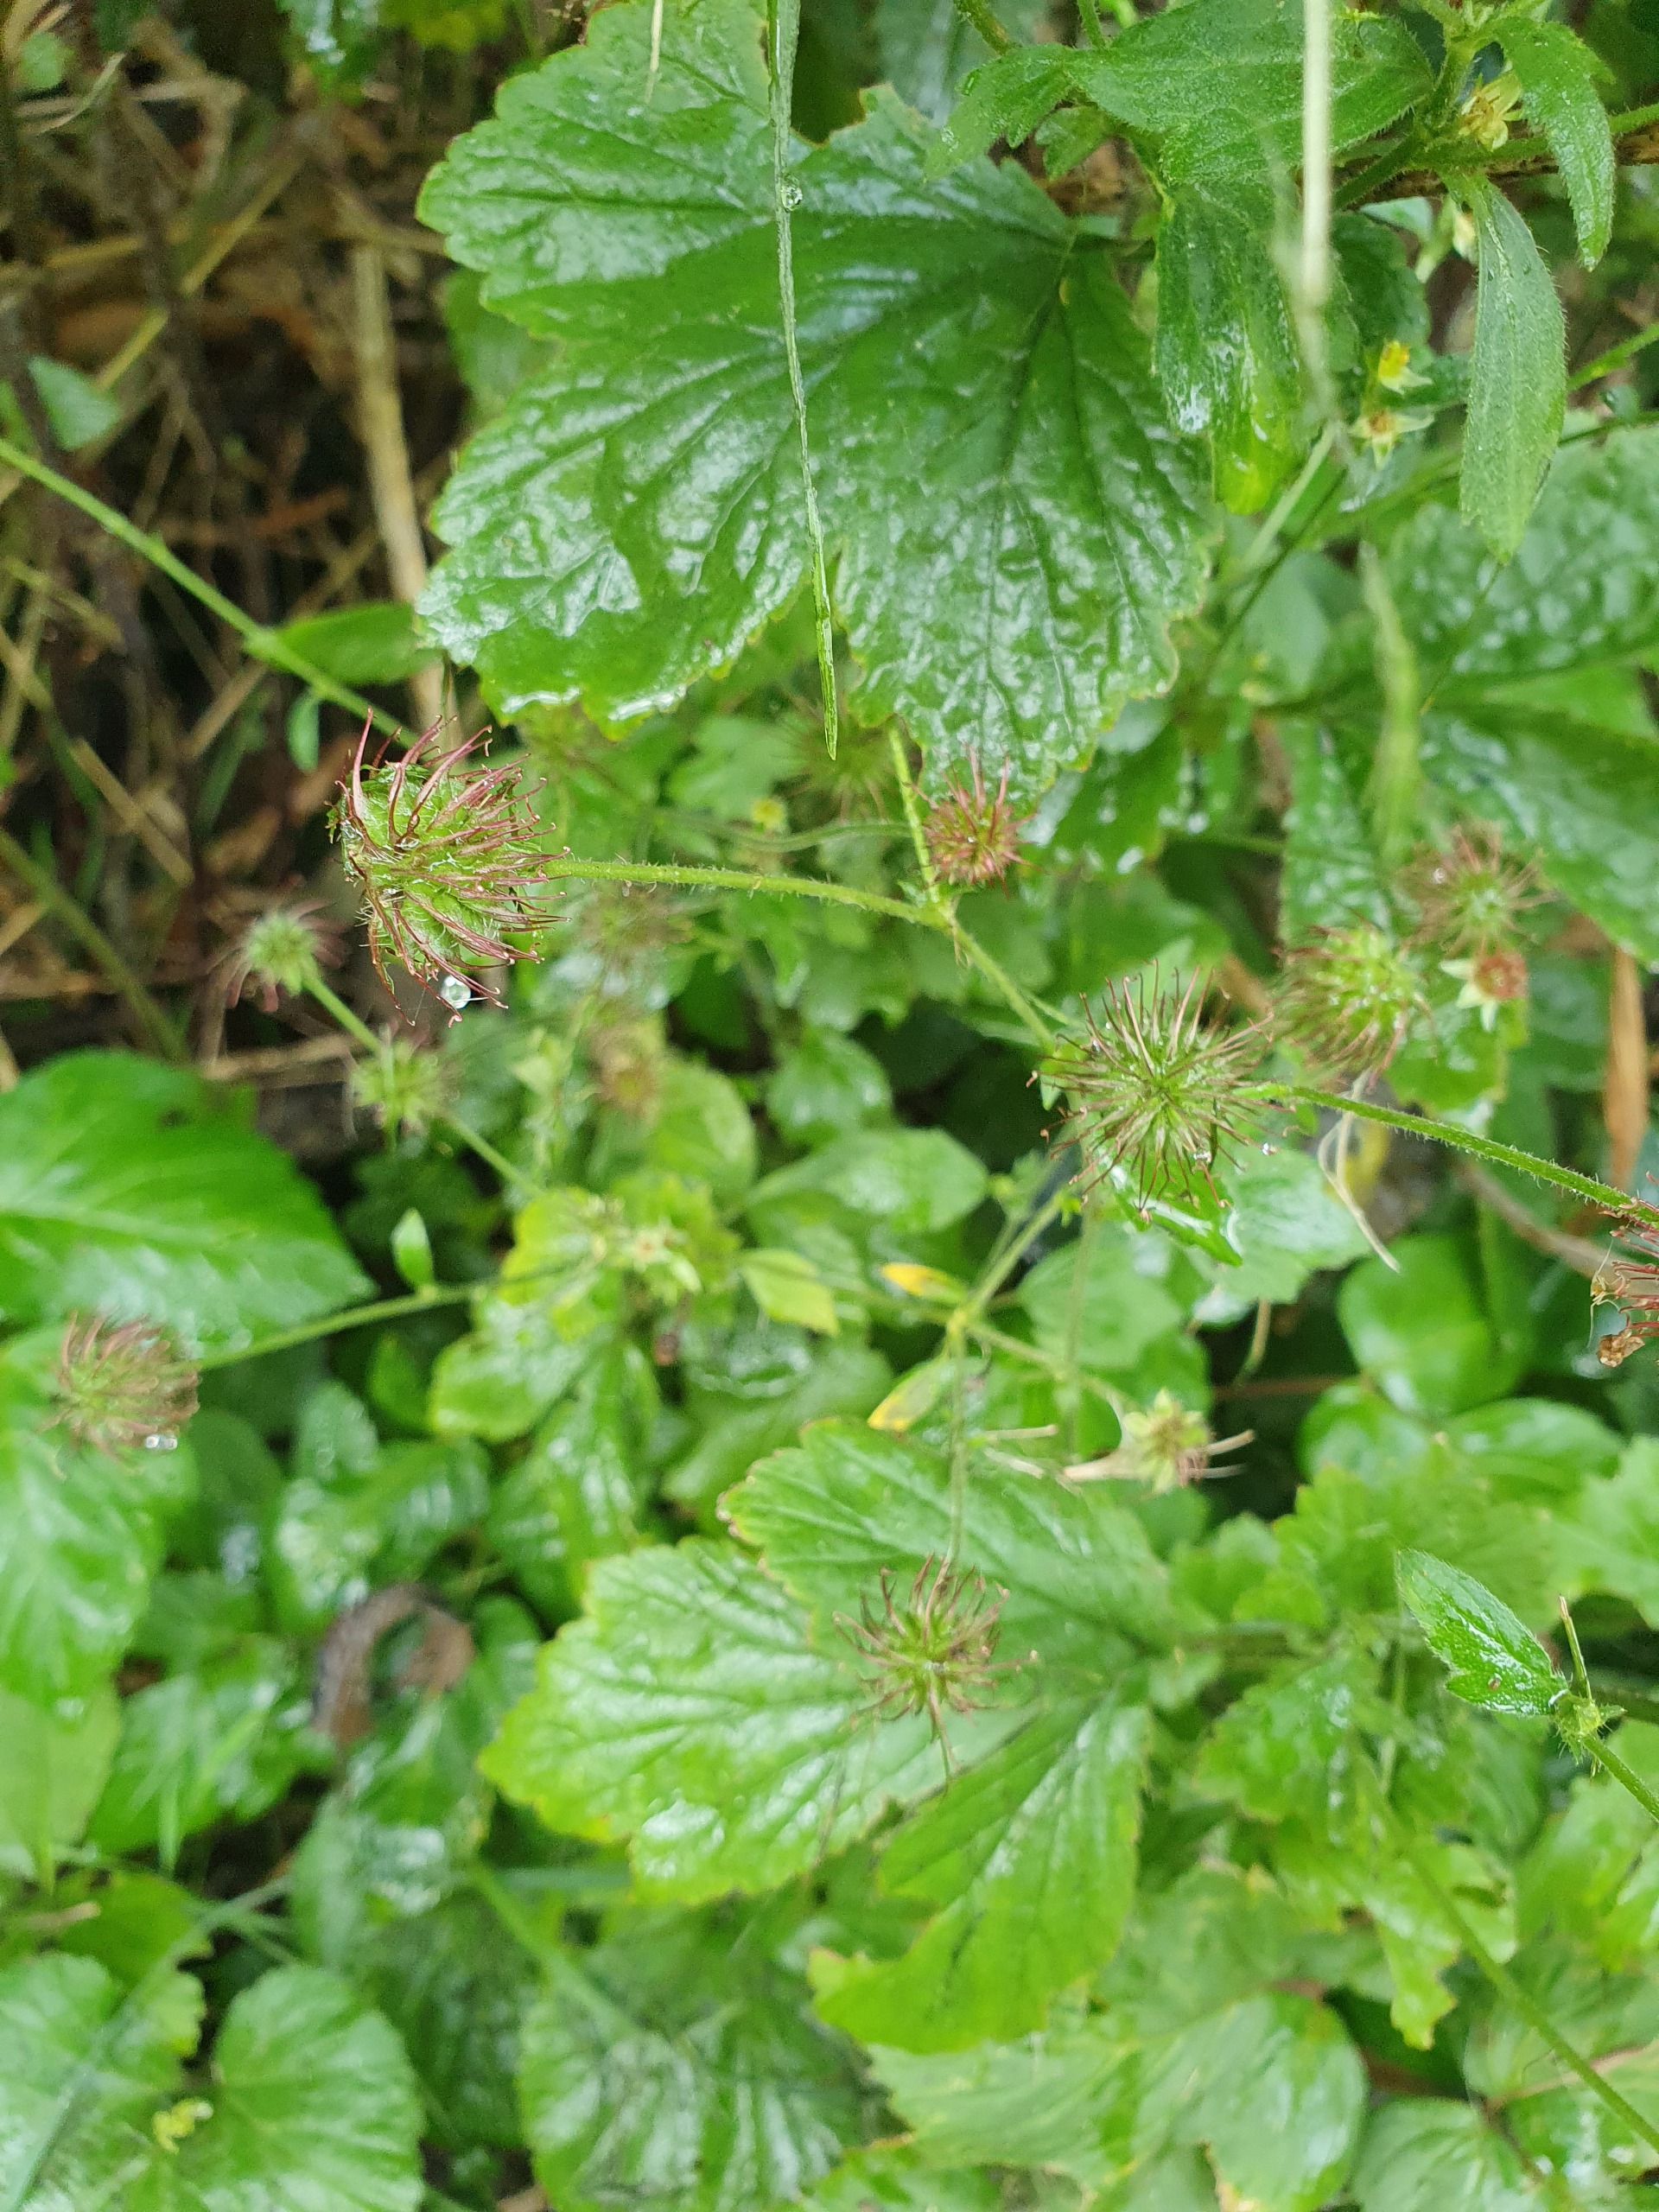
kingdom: Plantae
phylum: Tracheophyta
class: Magnoliopsida
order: Rosales
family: Rosaceae
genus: Geum
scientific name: Geum rivale
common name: Eng-nellikerod
